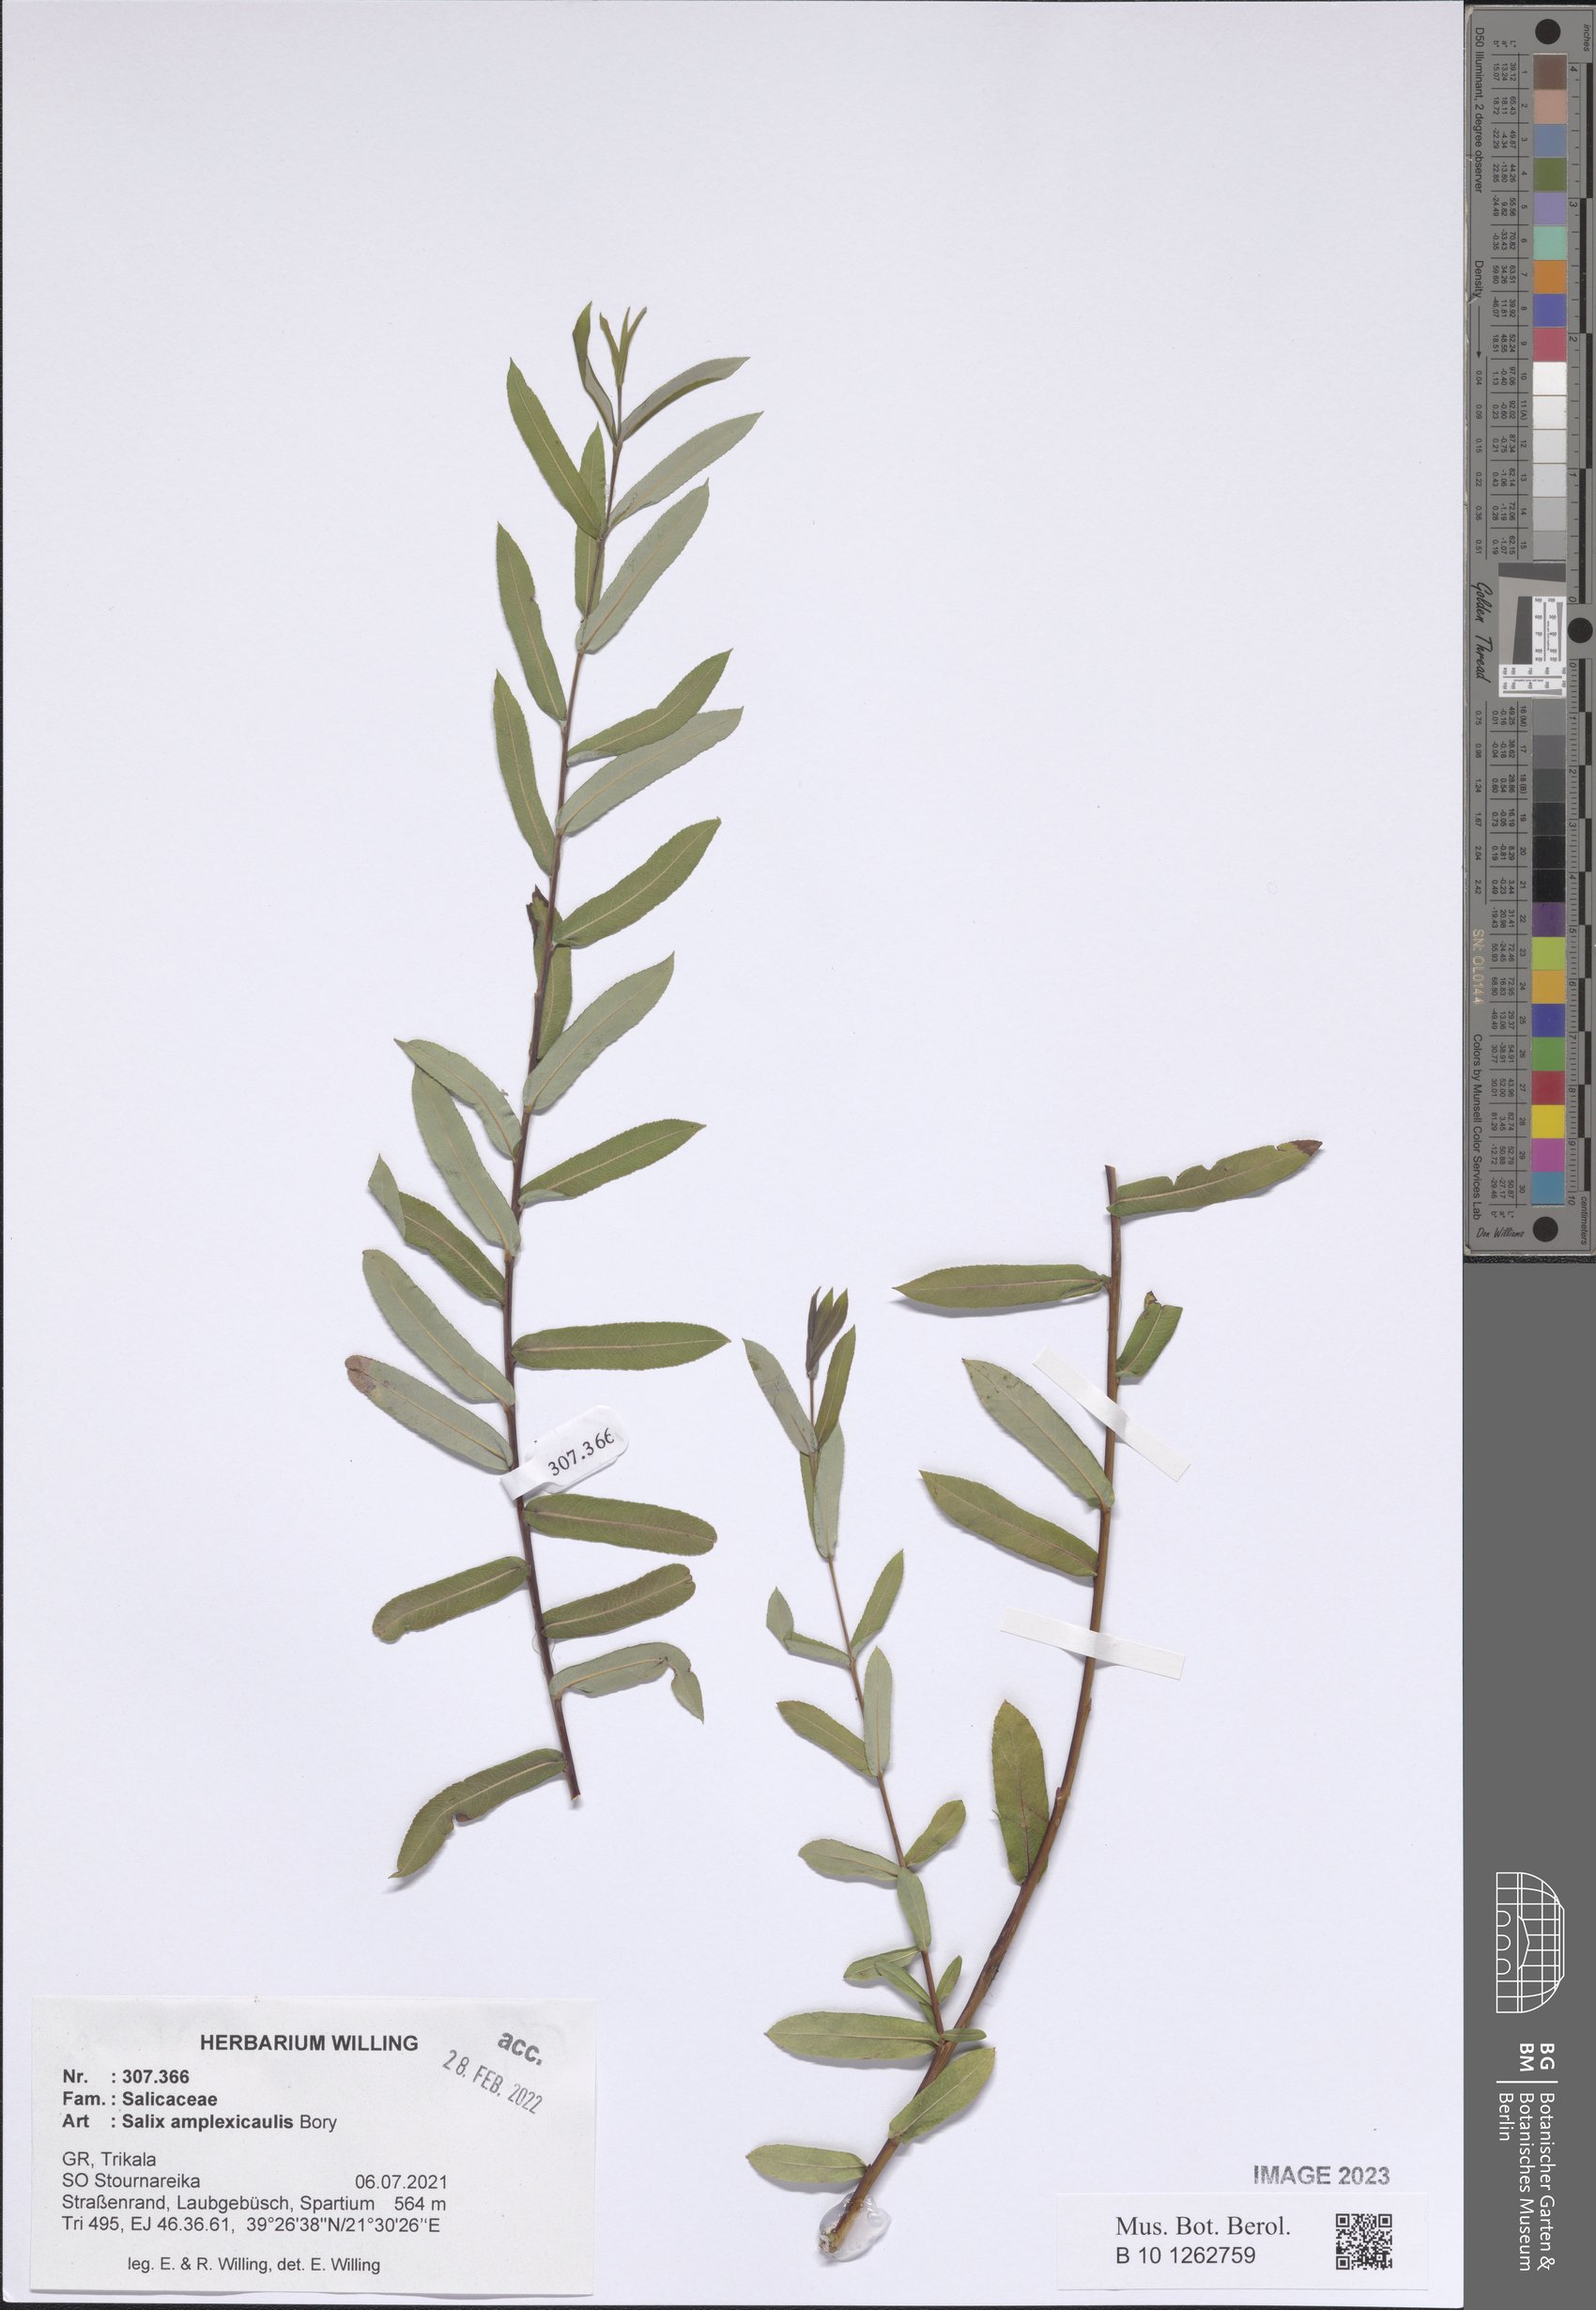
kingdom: Plantae
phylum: Tracheophyta
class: Magnoliopsida
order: Malpighiales
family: Salicaceae
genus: Salix
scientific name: Salix amplexicaulis
